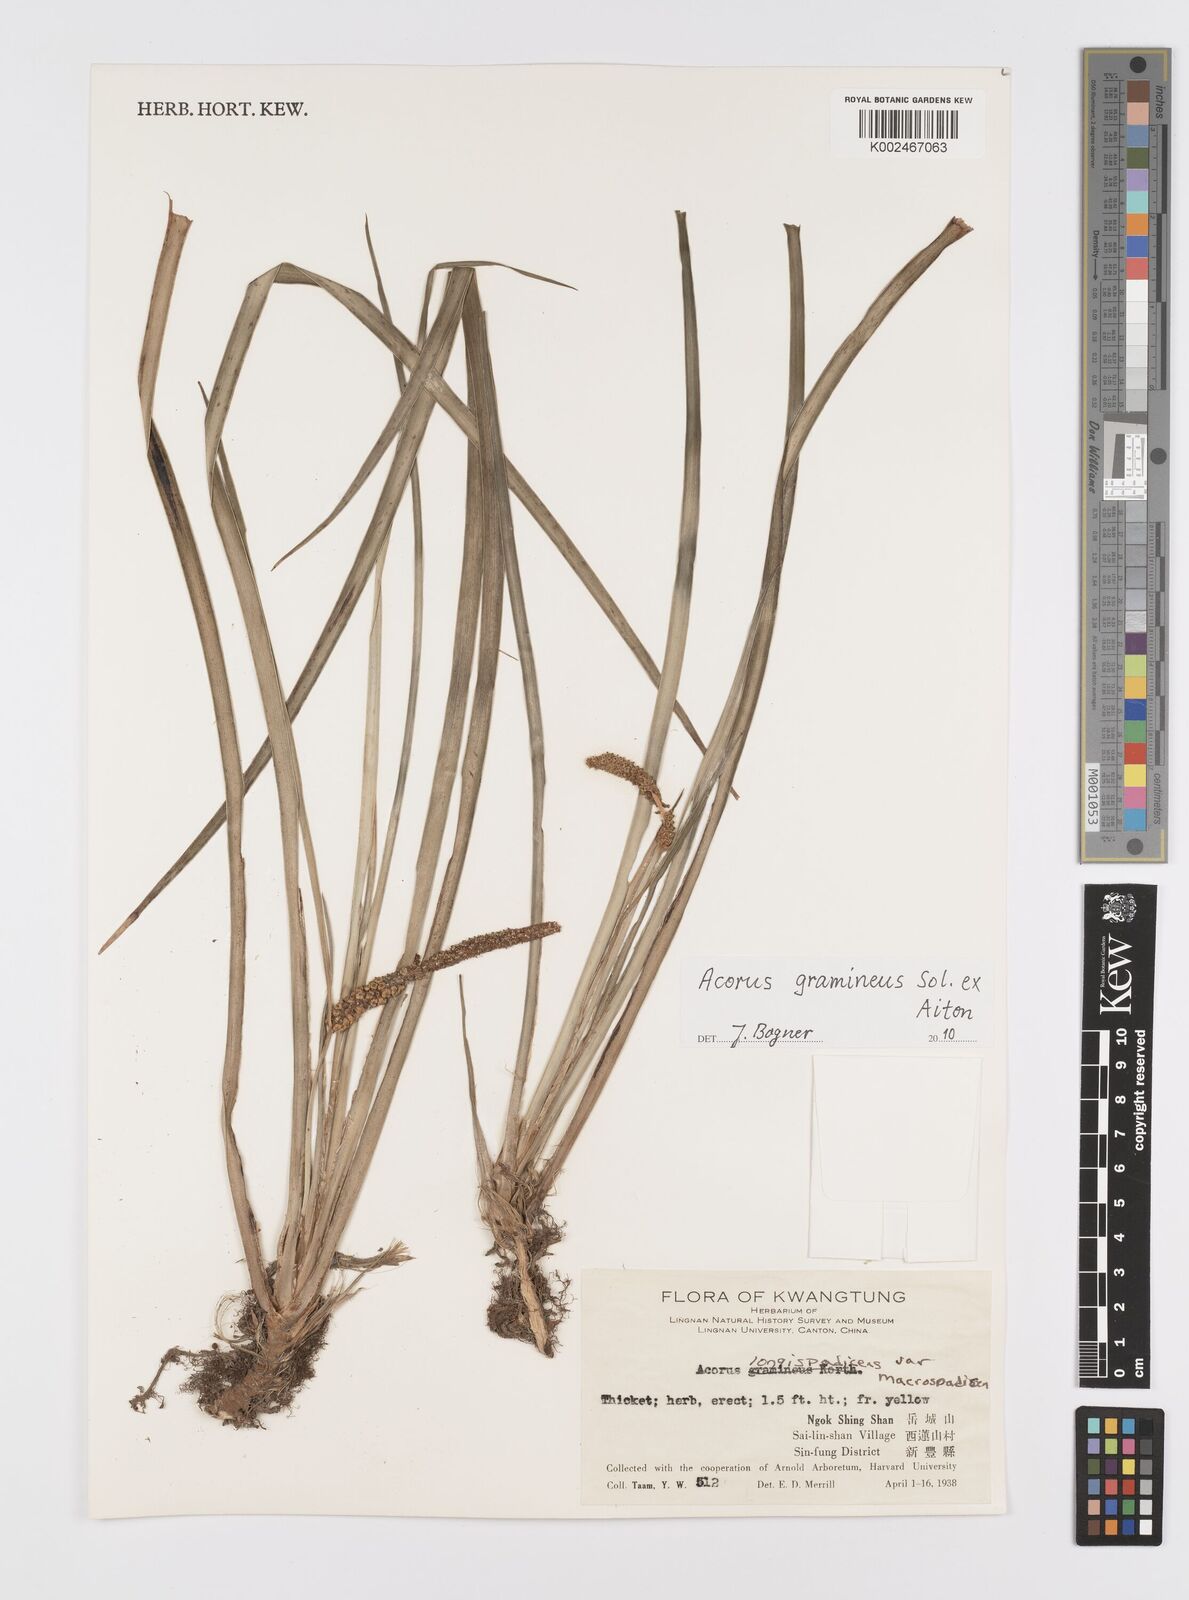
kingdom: Plantae
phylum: Tracheophyta
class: Liliopsida
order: Acorales
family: Acoraceae
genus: Acorus
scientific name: Acorus
